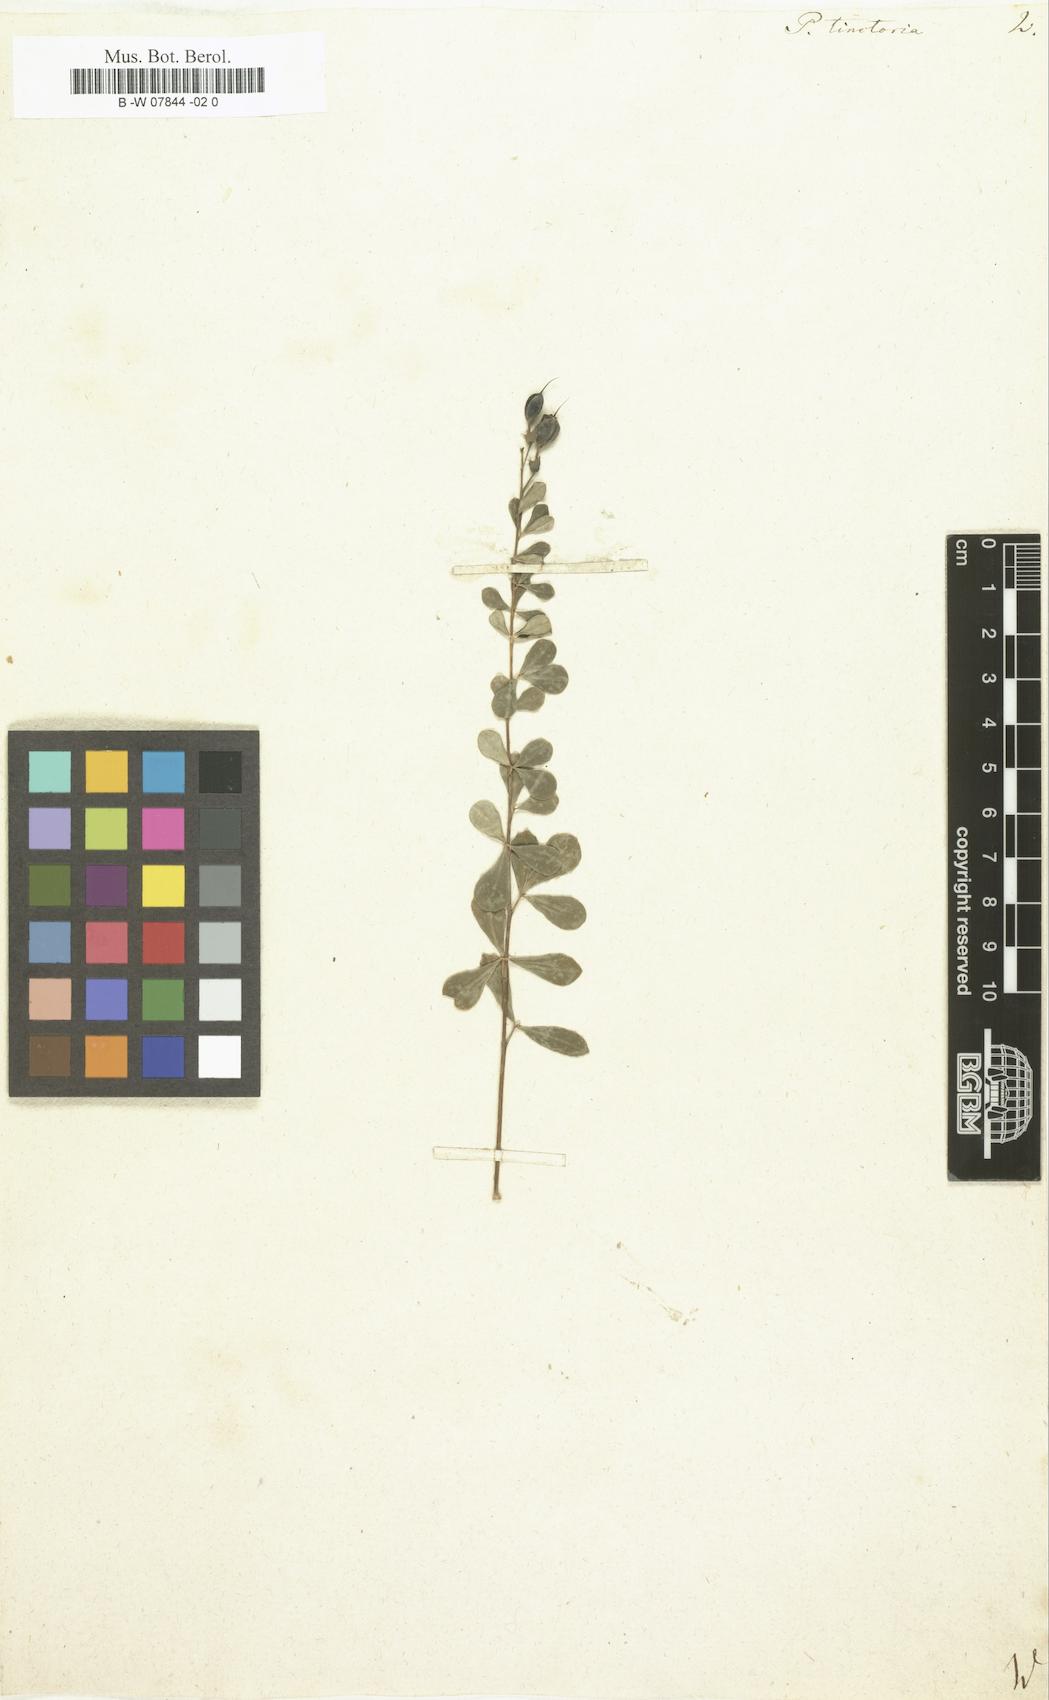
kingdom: Plantae
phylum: Tracheophyta
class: Magnoliopsida
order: Fabales
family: Fabaceae
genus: Baptisia
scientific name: Baptisia tinctoria
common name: Wild indigo
